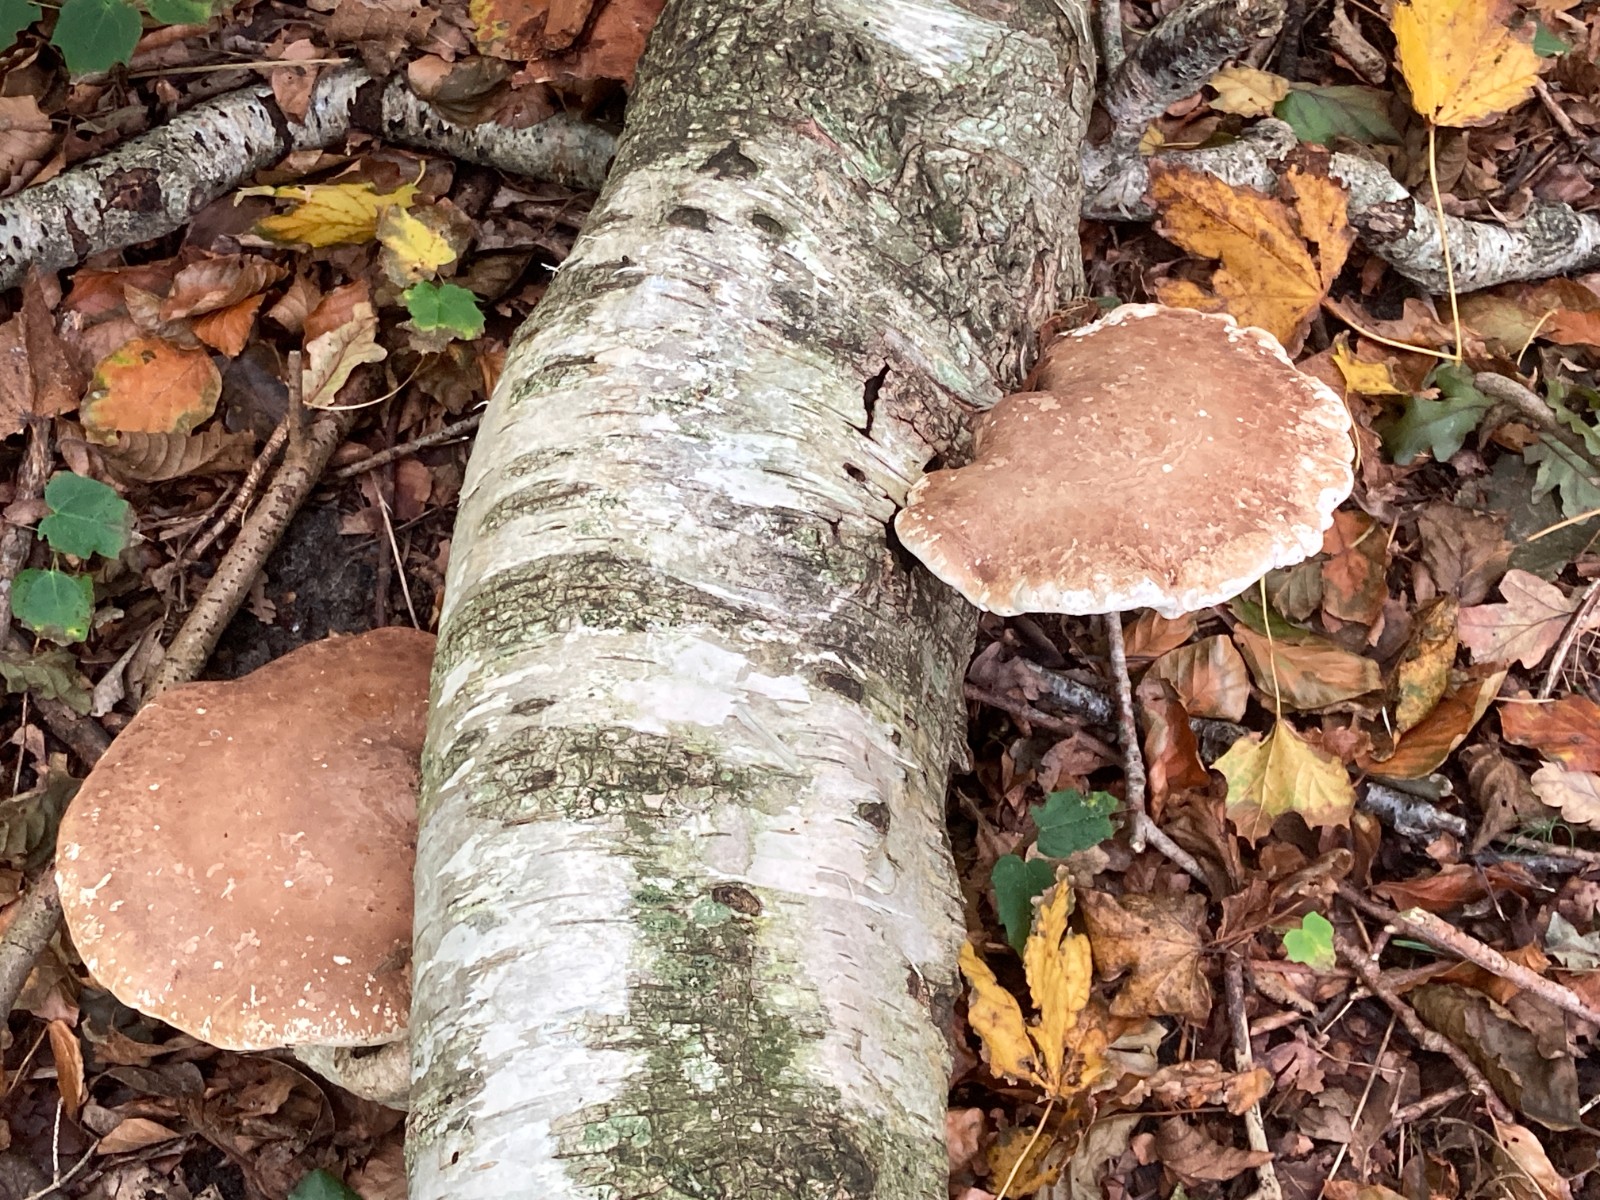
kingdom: Fungi
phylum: Basidiomycota
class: Agaricomycetes
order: Polyporales
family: Fomitopsidaceae
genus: Fomitopsis
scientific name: Fomitopsis betulina
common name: birkeporesvamp
